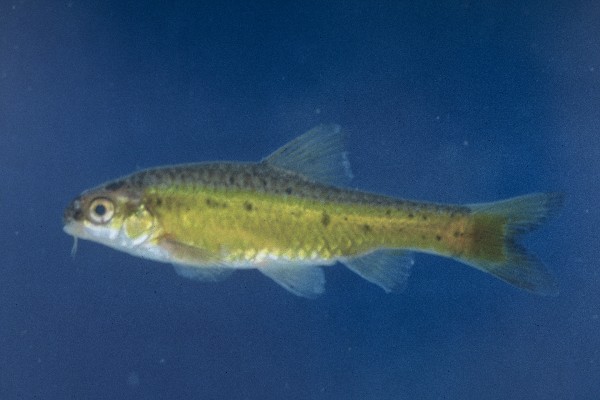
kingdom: Animalia
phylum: Chordata
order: Cypriniformes
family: Cyprinidae
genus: Enteromius
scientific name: Enteromius pallidus
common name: Goldie barb
